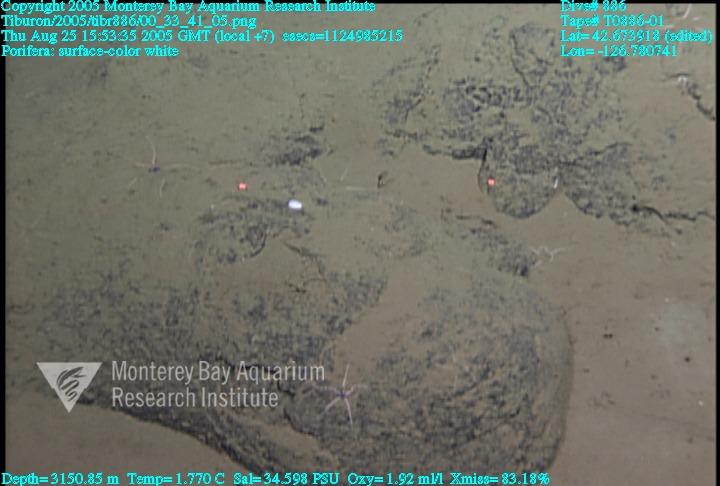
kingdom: Animalia
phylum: Porifera
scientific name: Porifera
